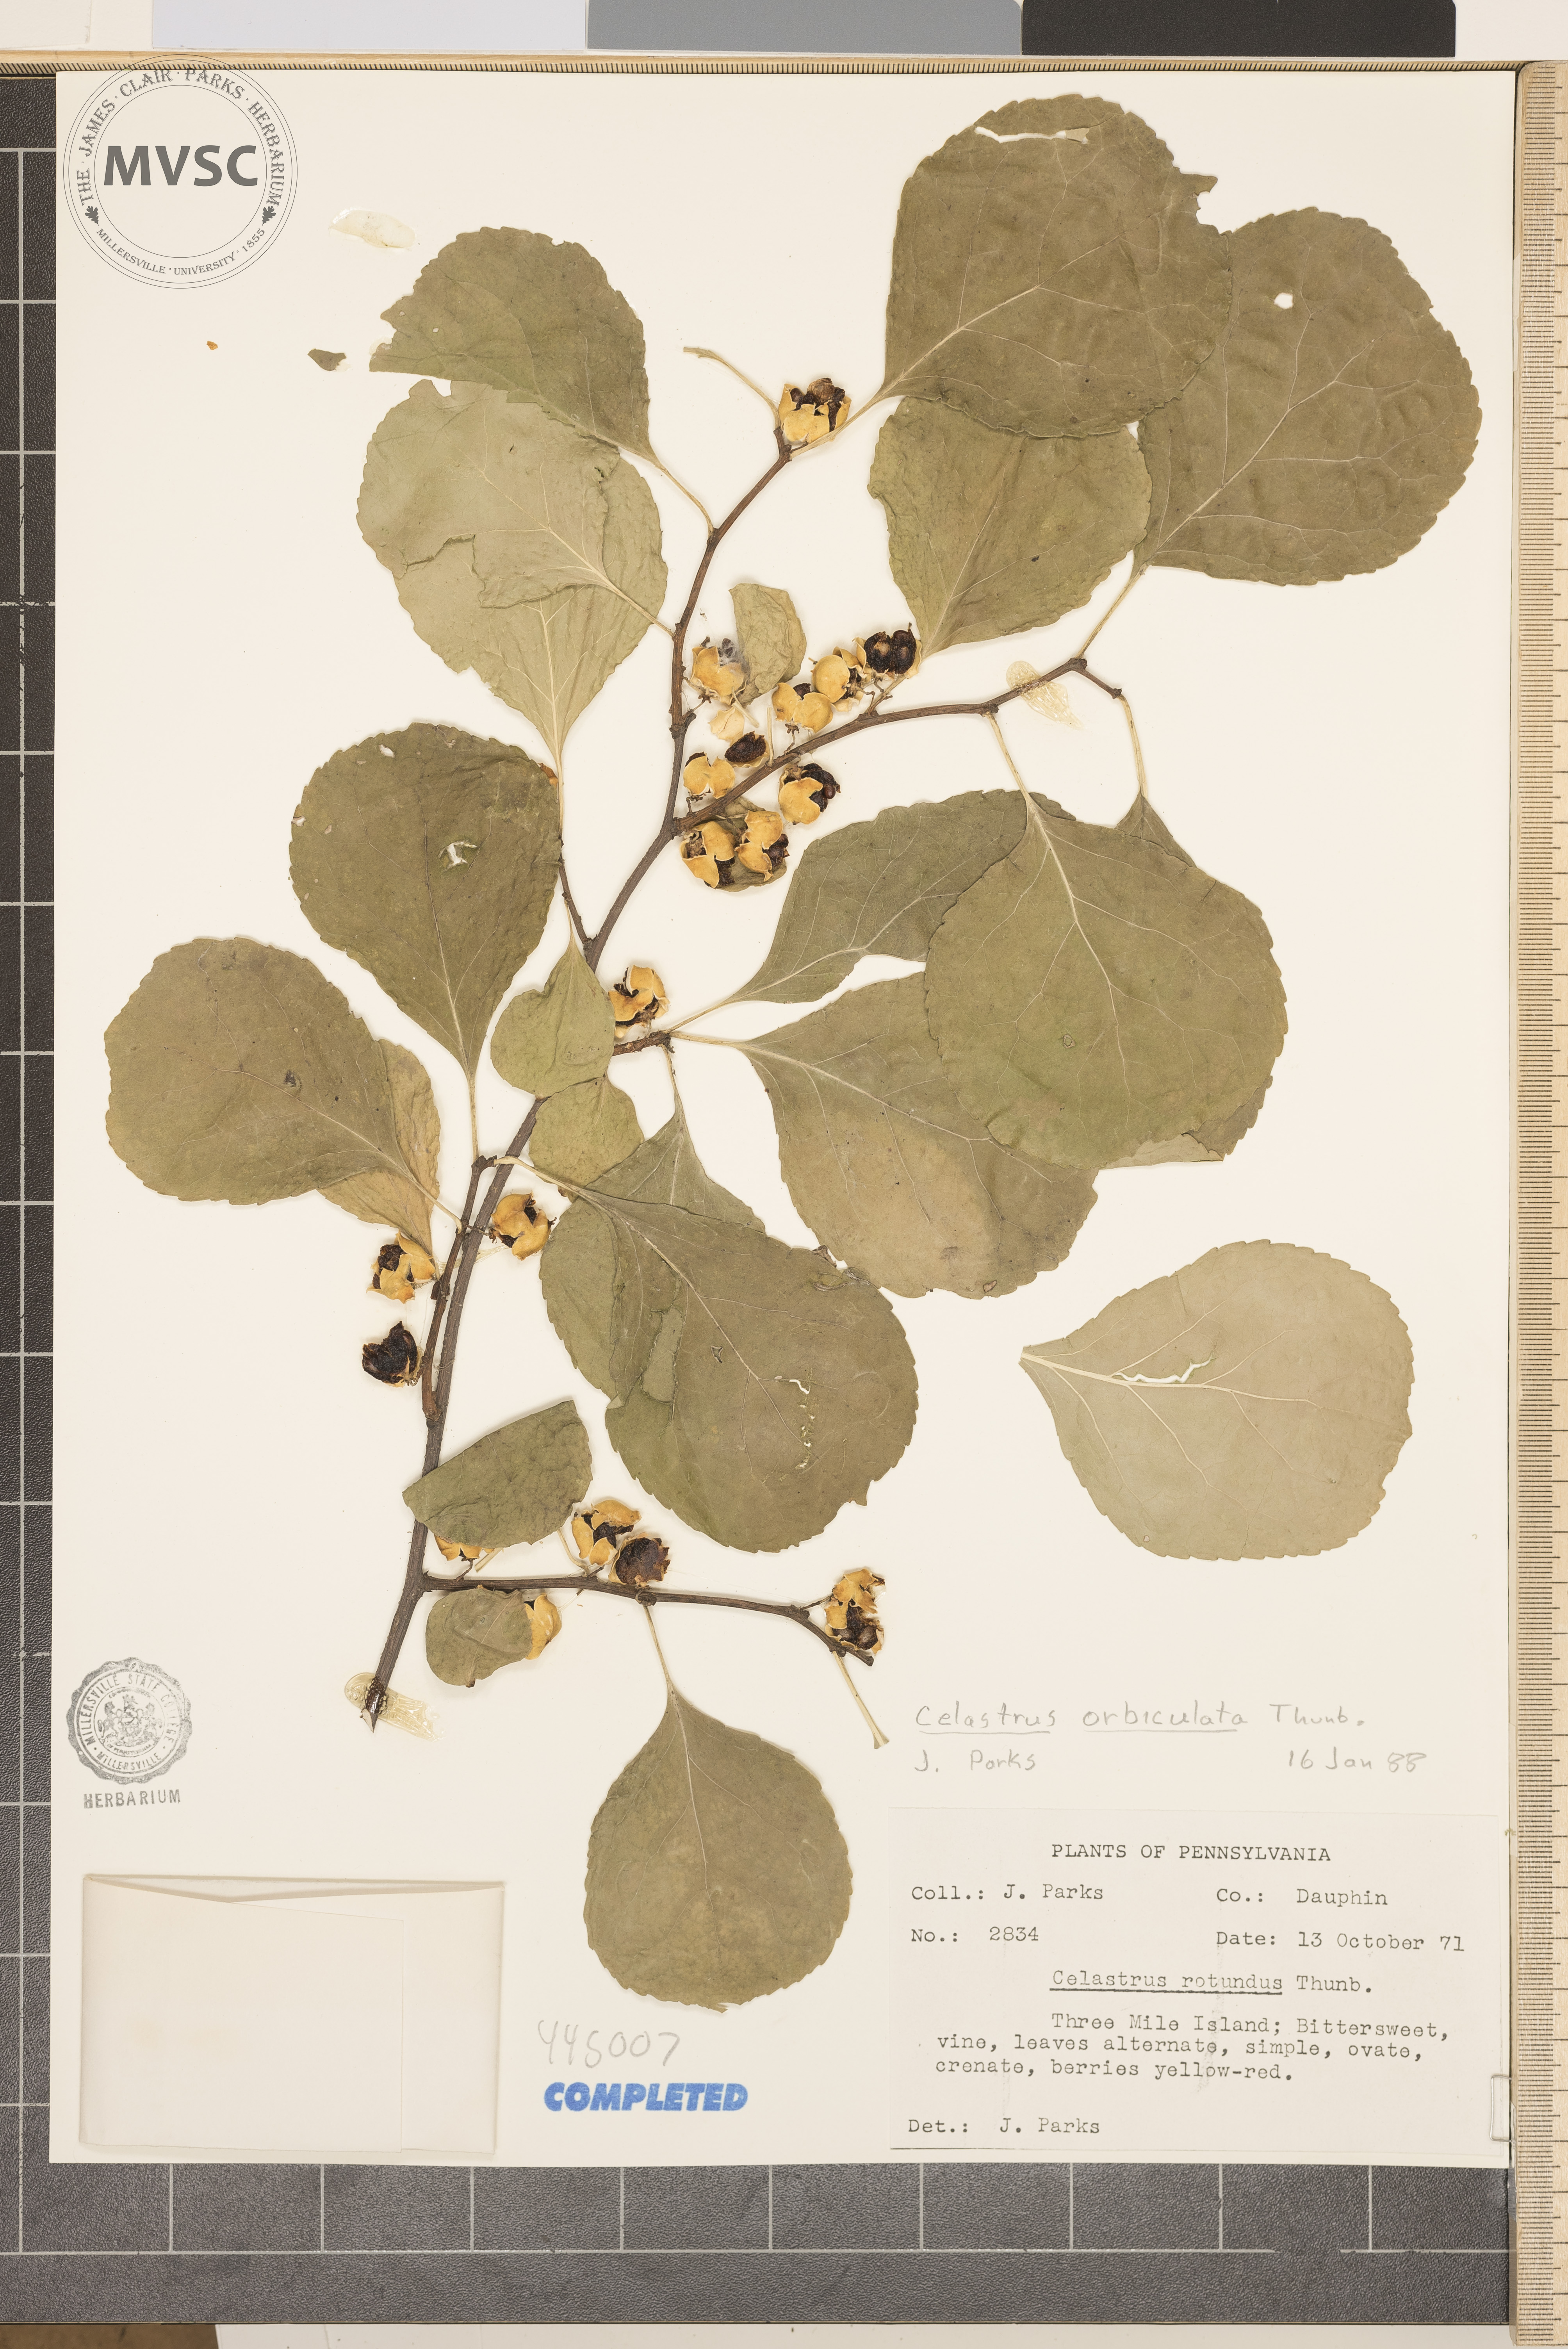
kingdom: Plantae
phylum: Tracheophyta
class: Magnoliopsida
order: Celastrales
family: Celastraceae
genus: Celastrus
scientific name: Celastrus orbiculatus
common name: Oriental bittersweet
